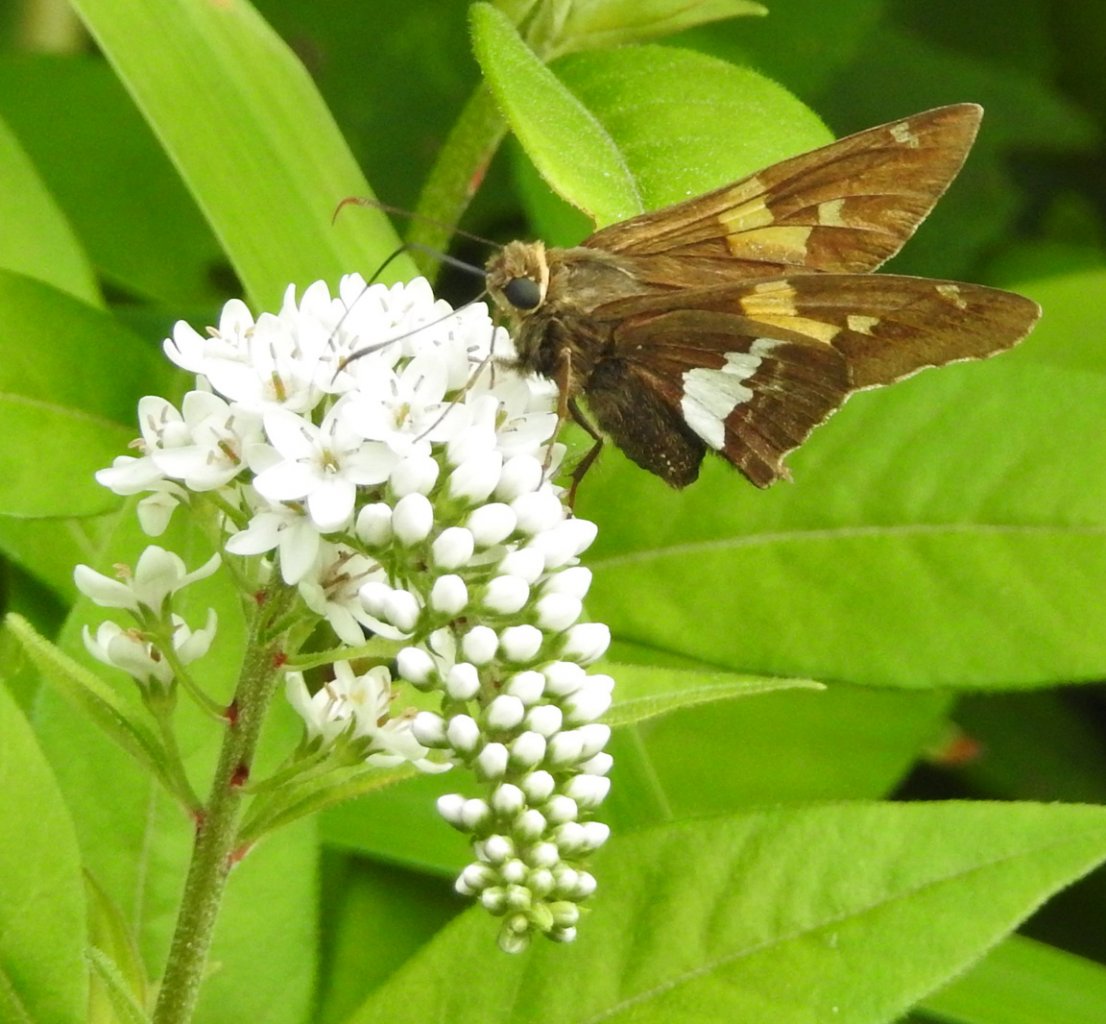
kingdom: Animalia
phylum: Arthropoda
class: Insecta
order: Lepidoptera
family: Hesperiidae
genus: Epargyreus
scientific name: Epargyreus clarus
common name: Silver-spotted Skipper
